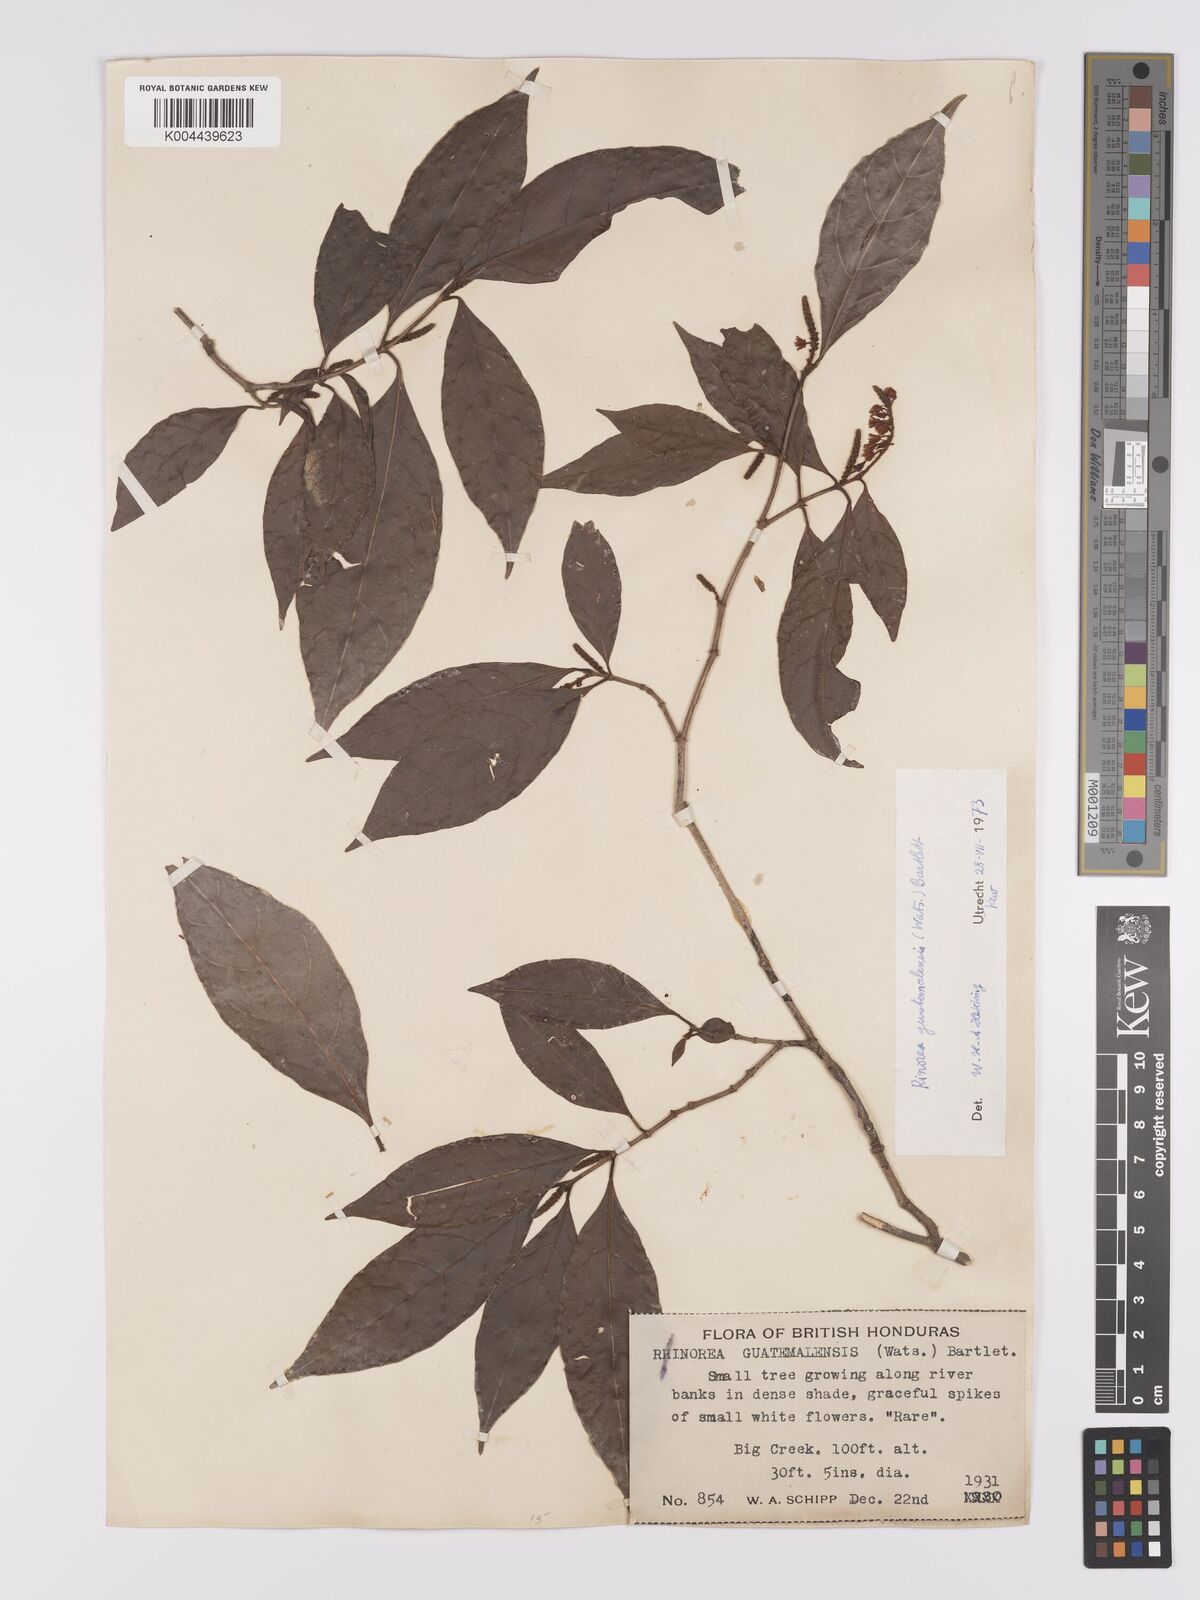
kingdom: Plantae
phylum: Tracheophyta
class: Magnoliopsida
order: Malpighiales
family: Violaceae
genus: Rinorea
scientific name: Rinorea guatemalensis
